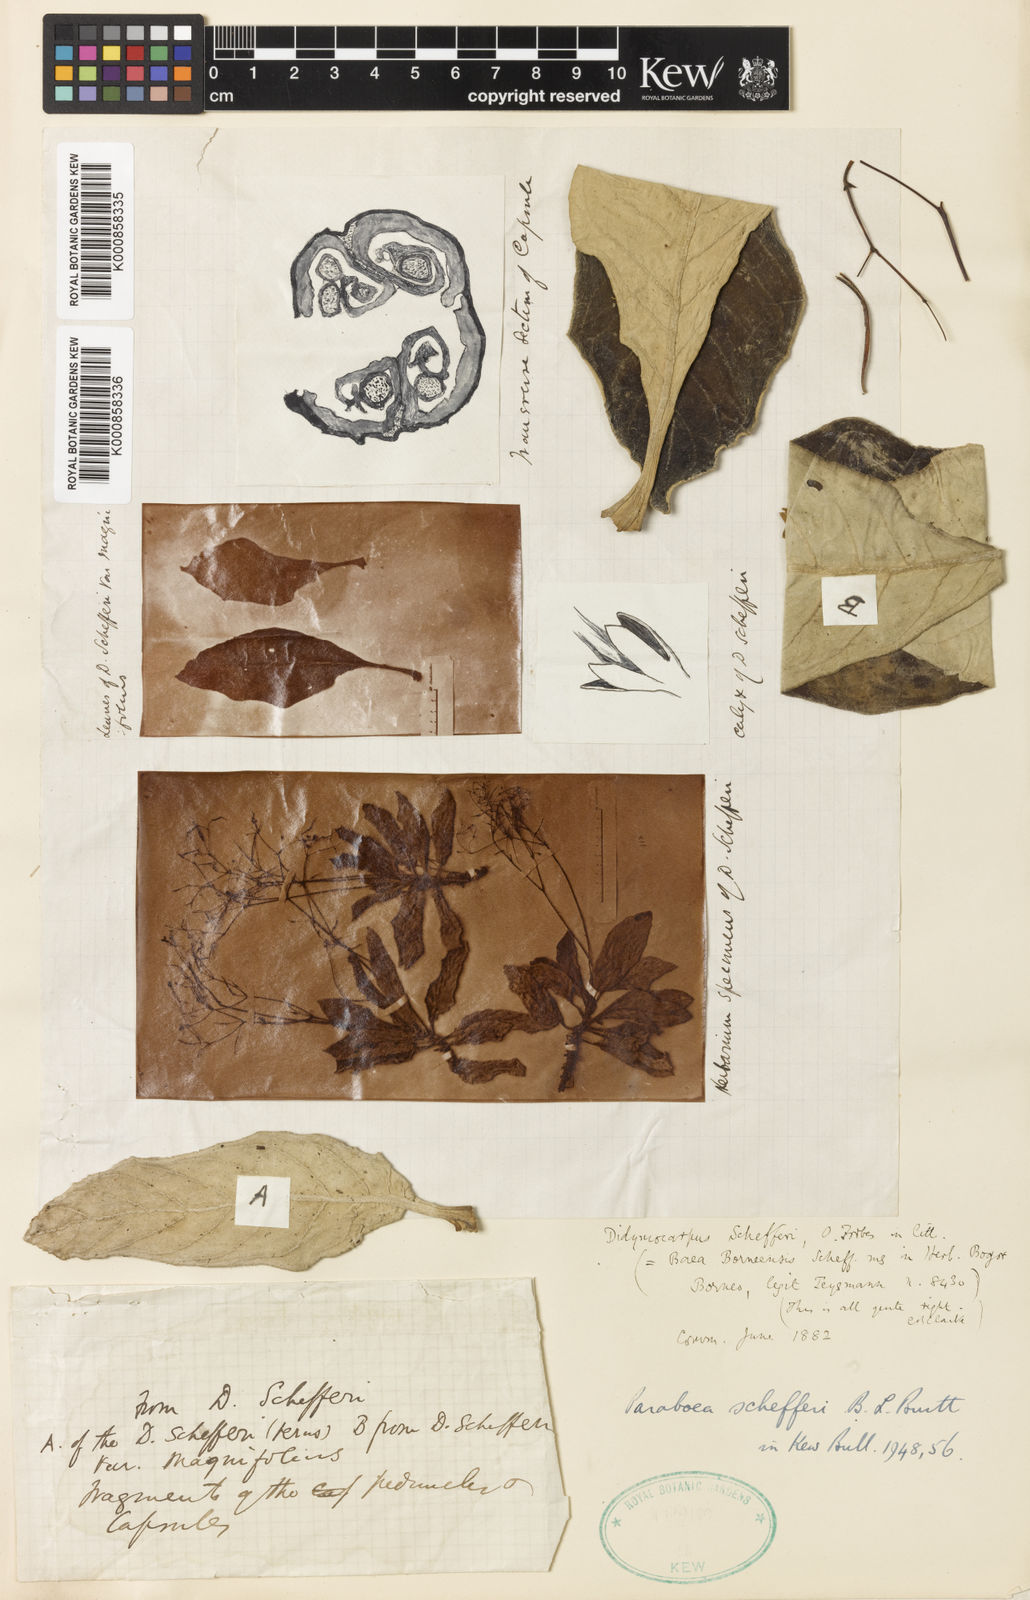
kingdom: Plantae
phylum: Tracheophyta
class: Magnoliopsida
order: Lamiales
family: Gesneriaceae
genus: Paraboea
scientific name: Paraboea schefferi
